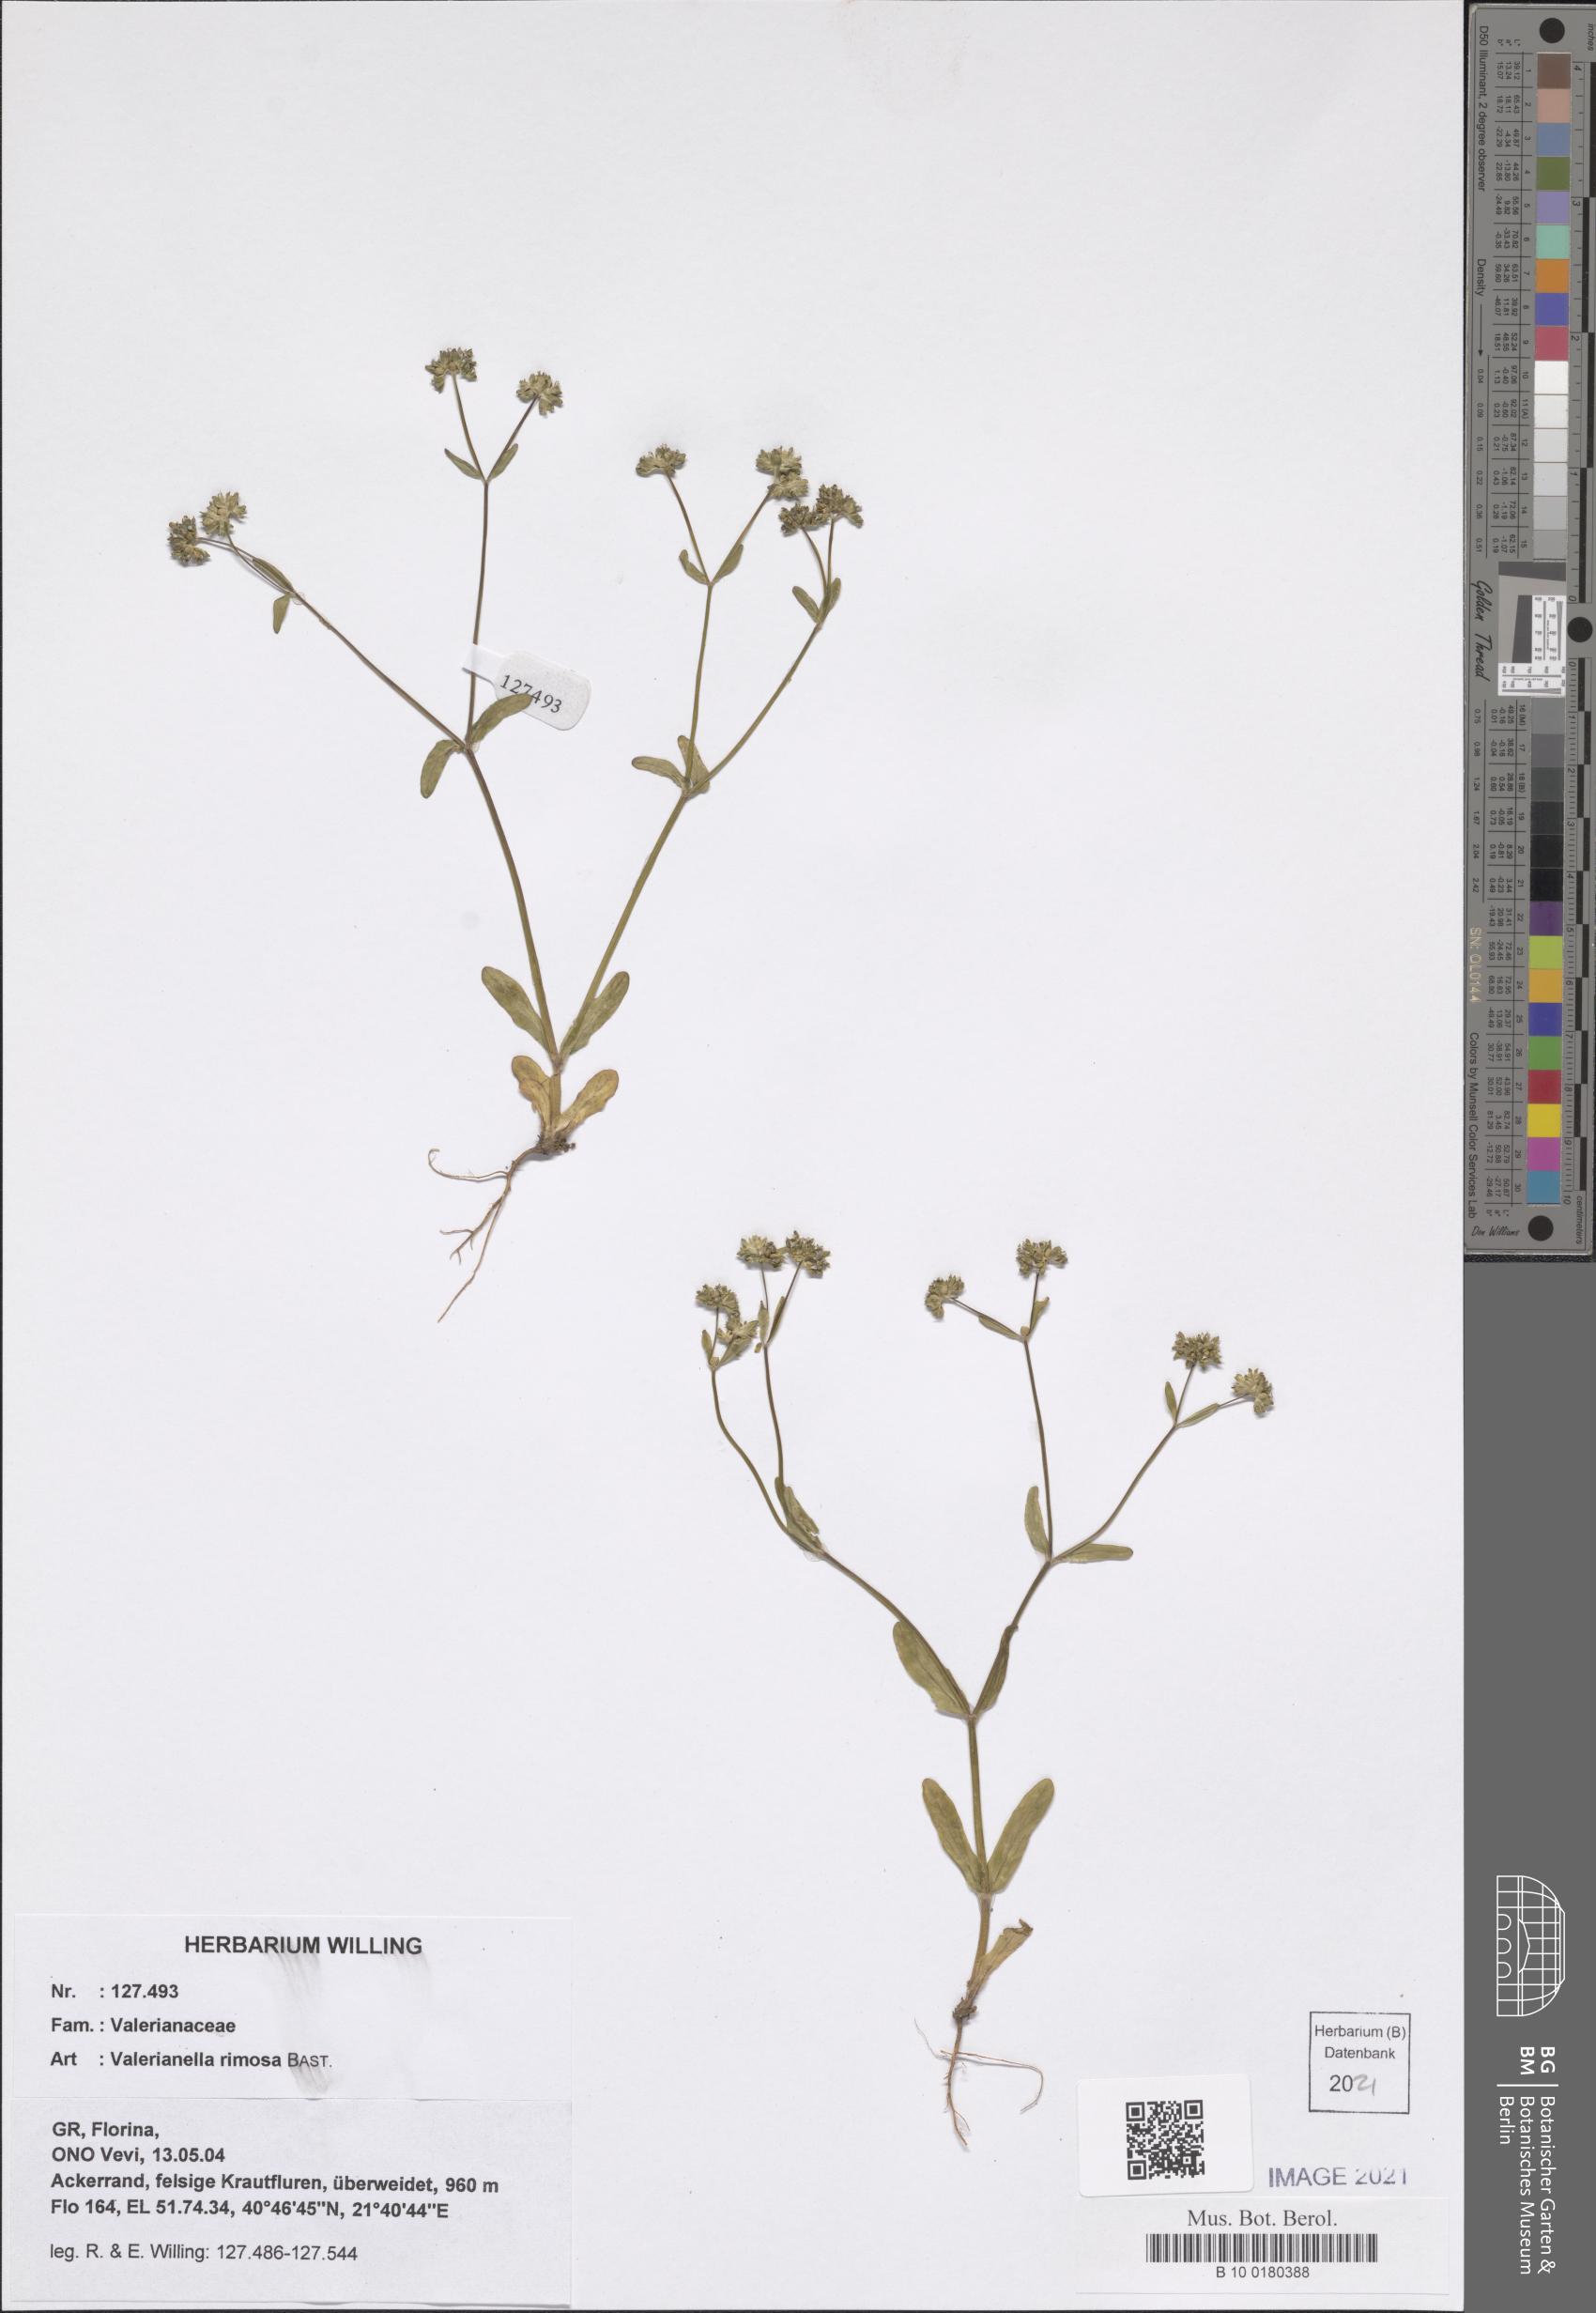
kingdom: Plantae
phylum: Tracheophyta
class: Magnoliopsida
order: Dipsacales
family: Caprifoliaceae
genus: Valerianella
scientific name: Valerianella rimosa
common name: Broad-fruited cornsalad
